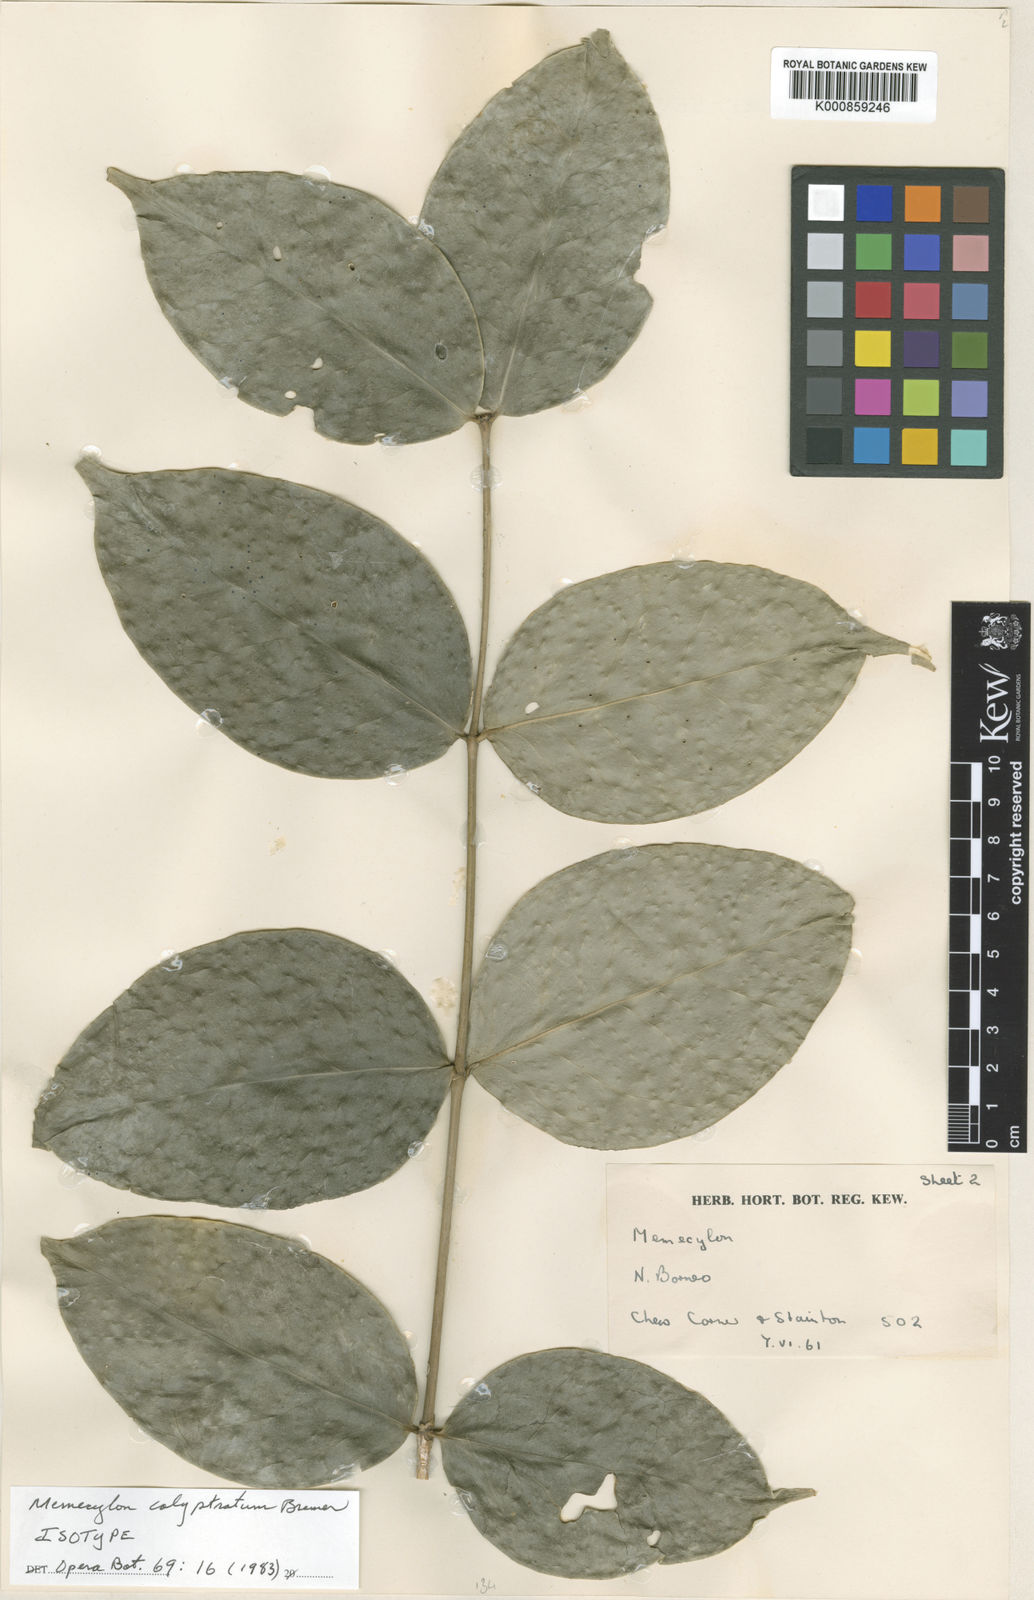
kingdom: Plantae
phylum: Tracheophyta
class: Magnoliopsida
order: Myrtales
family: Melastomataceae
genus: Memecylon
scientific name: Memecylon calyptratum
